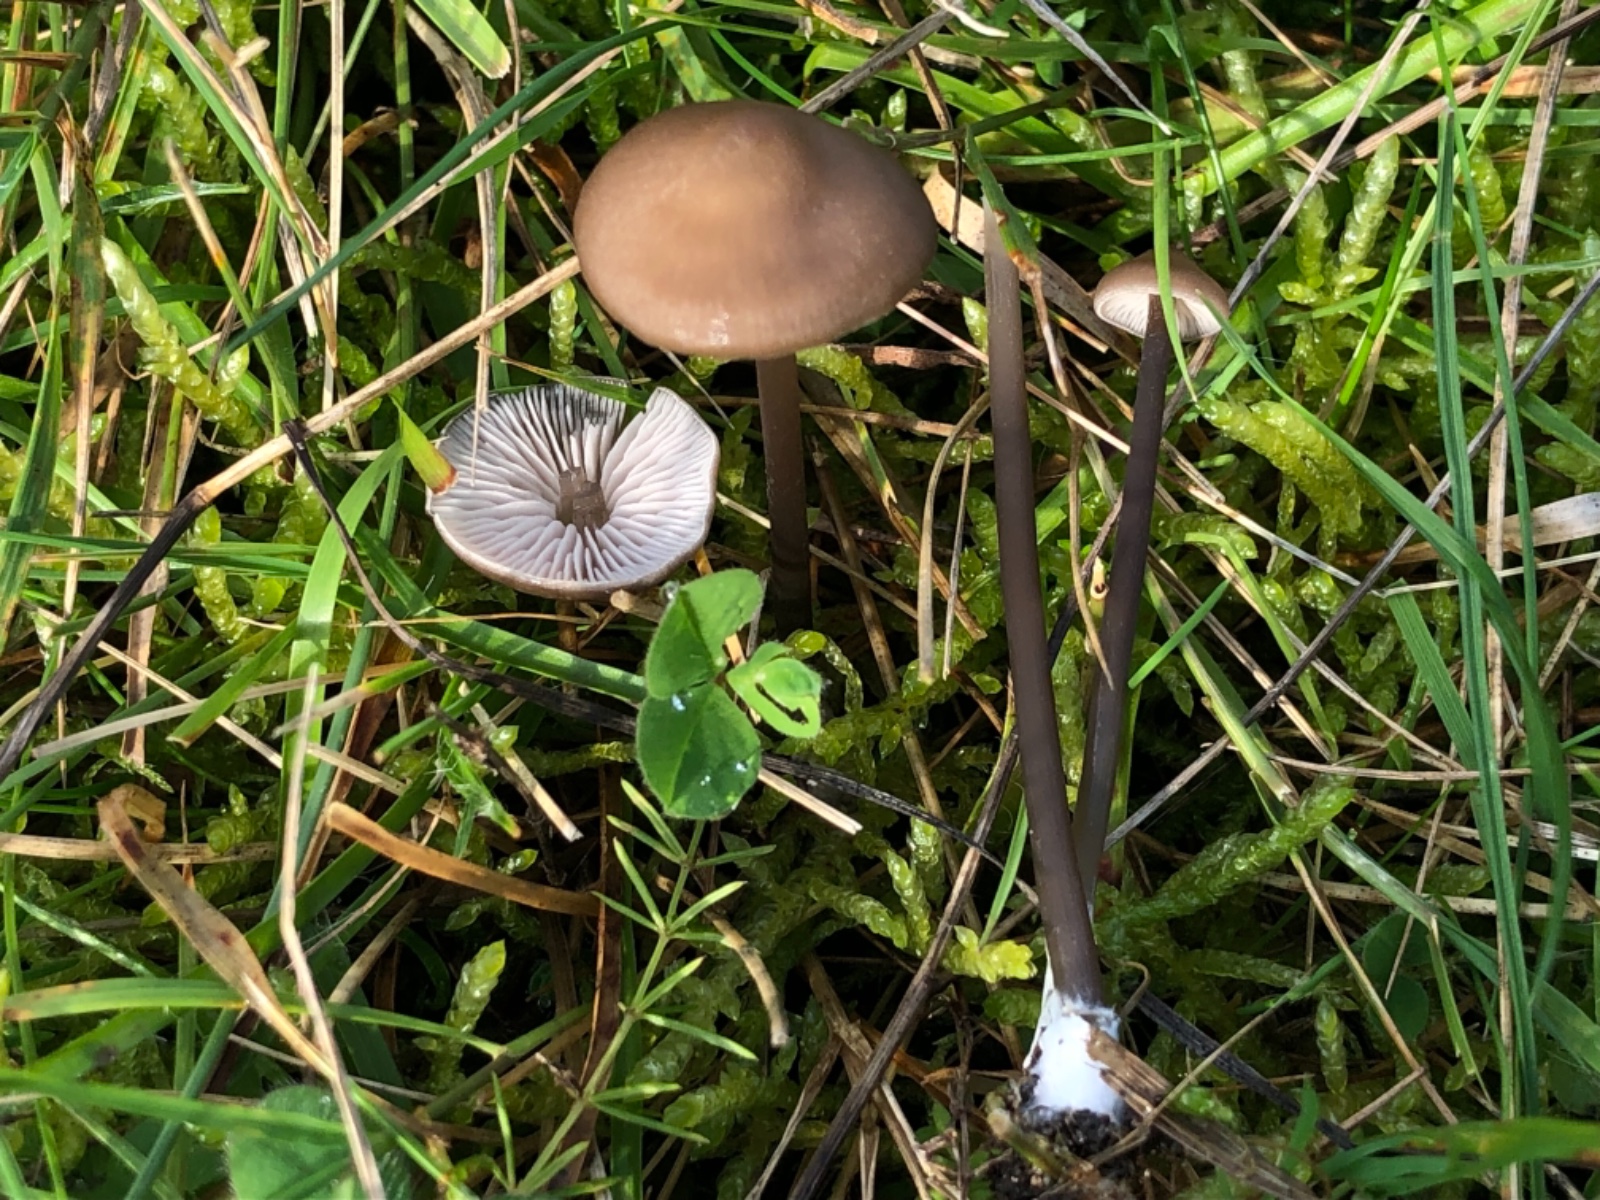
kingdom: Fungi
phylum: Basidiomycota
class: Agaricomycetes
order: Agaricales
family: Entolomataceae
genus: Entoloma
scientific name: Entoloma infula
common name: hvidbladet rødblad
